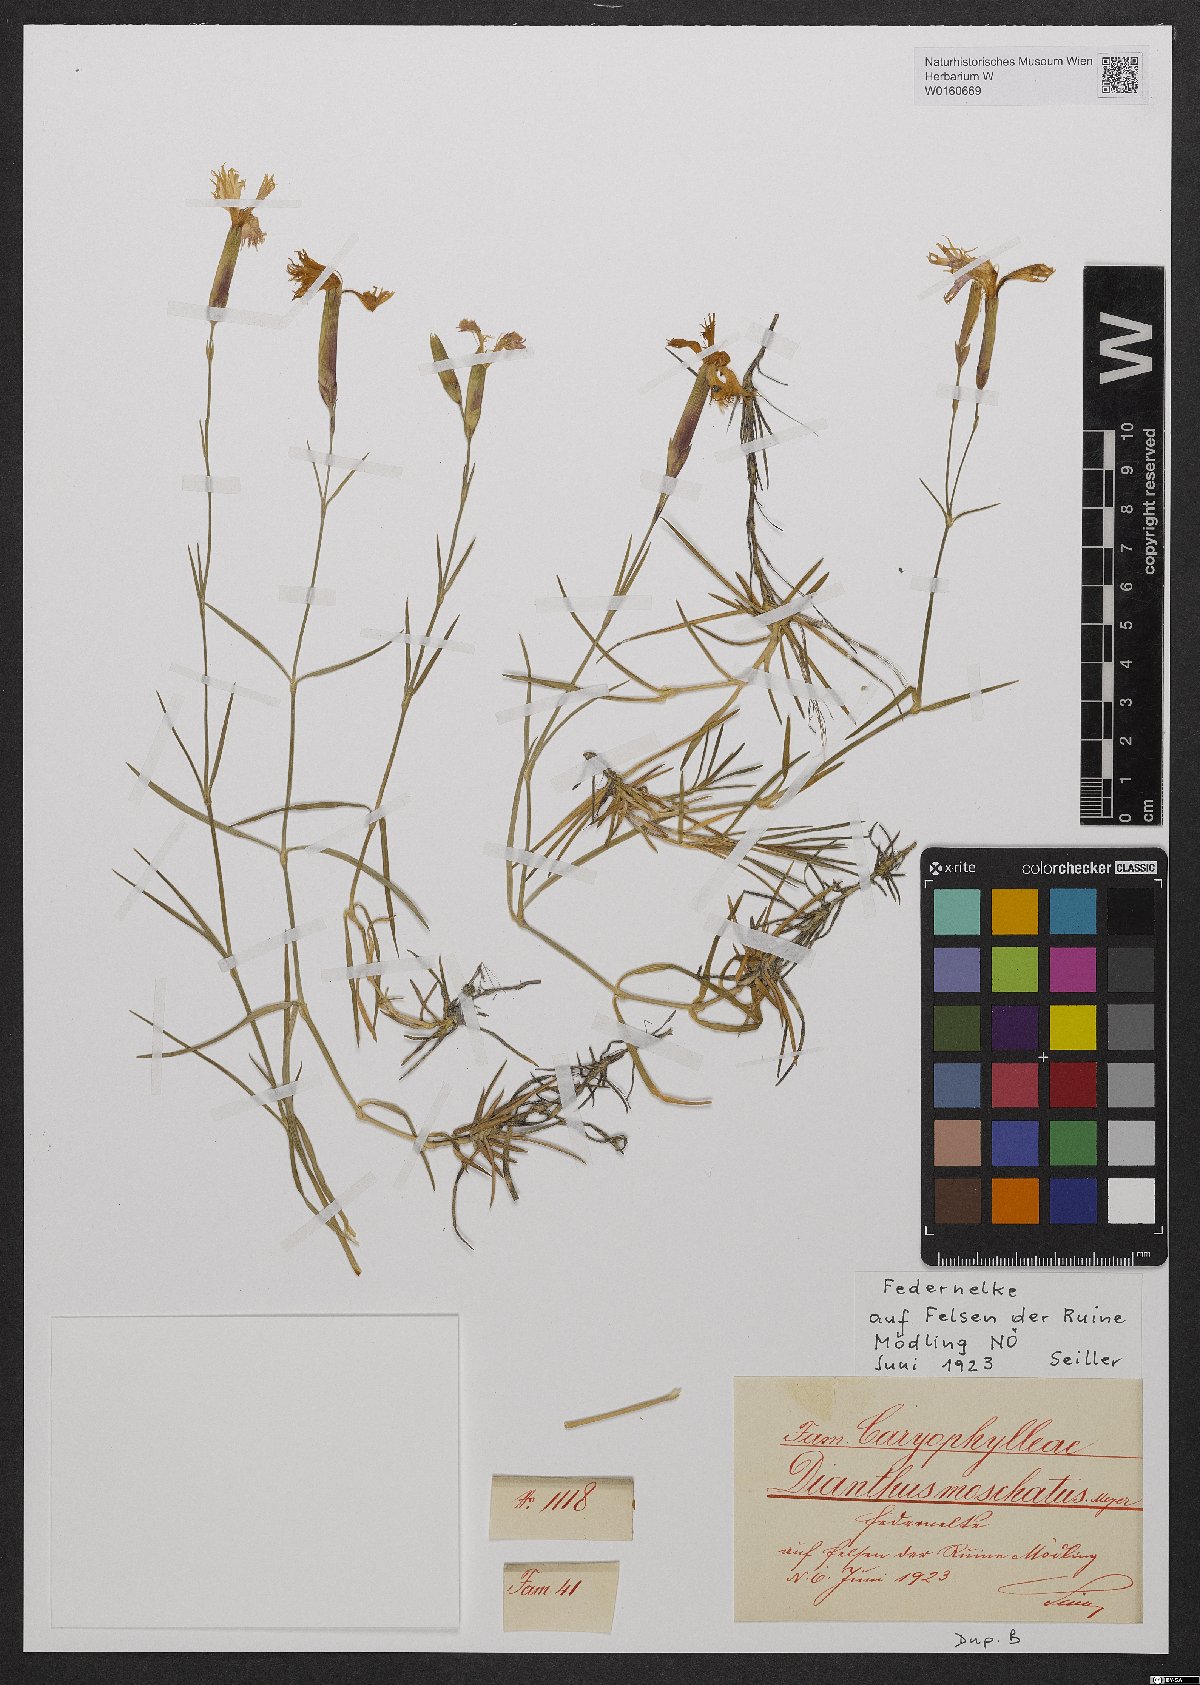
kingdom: Plantae
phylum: Tracheophyta
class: Magnoliopsida
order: Caryophyllales
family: Caryophyllaceae
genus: Dianthus
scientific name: Dianthus plumarius
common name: Pink
